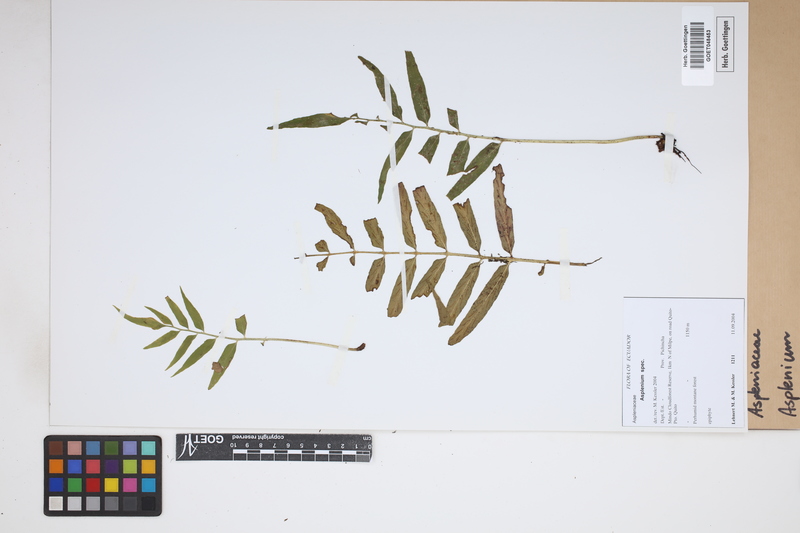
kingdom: Plantae
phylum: Tracheophyta
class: Polypodiopsida
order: Polypodiales
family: Aspleniaceae
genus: Asplenium
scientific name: Asplenium
